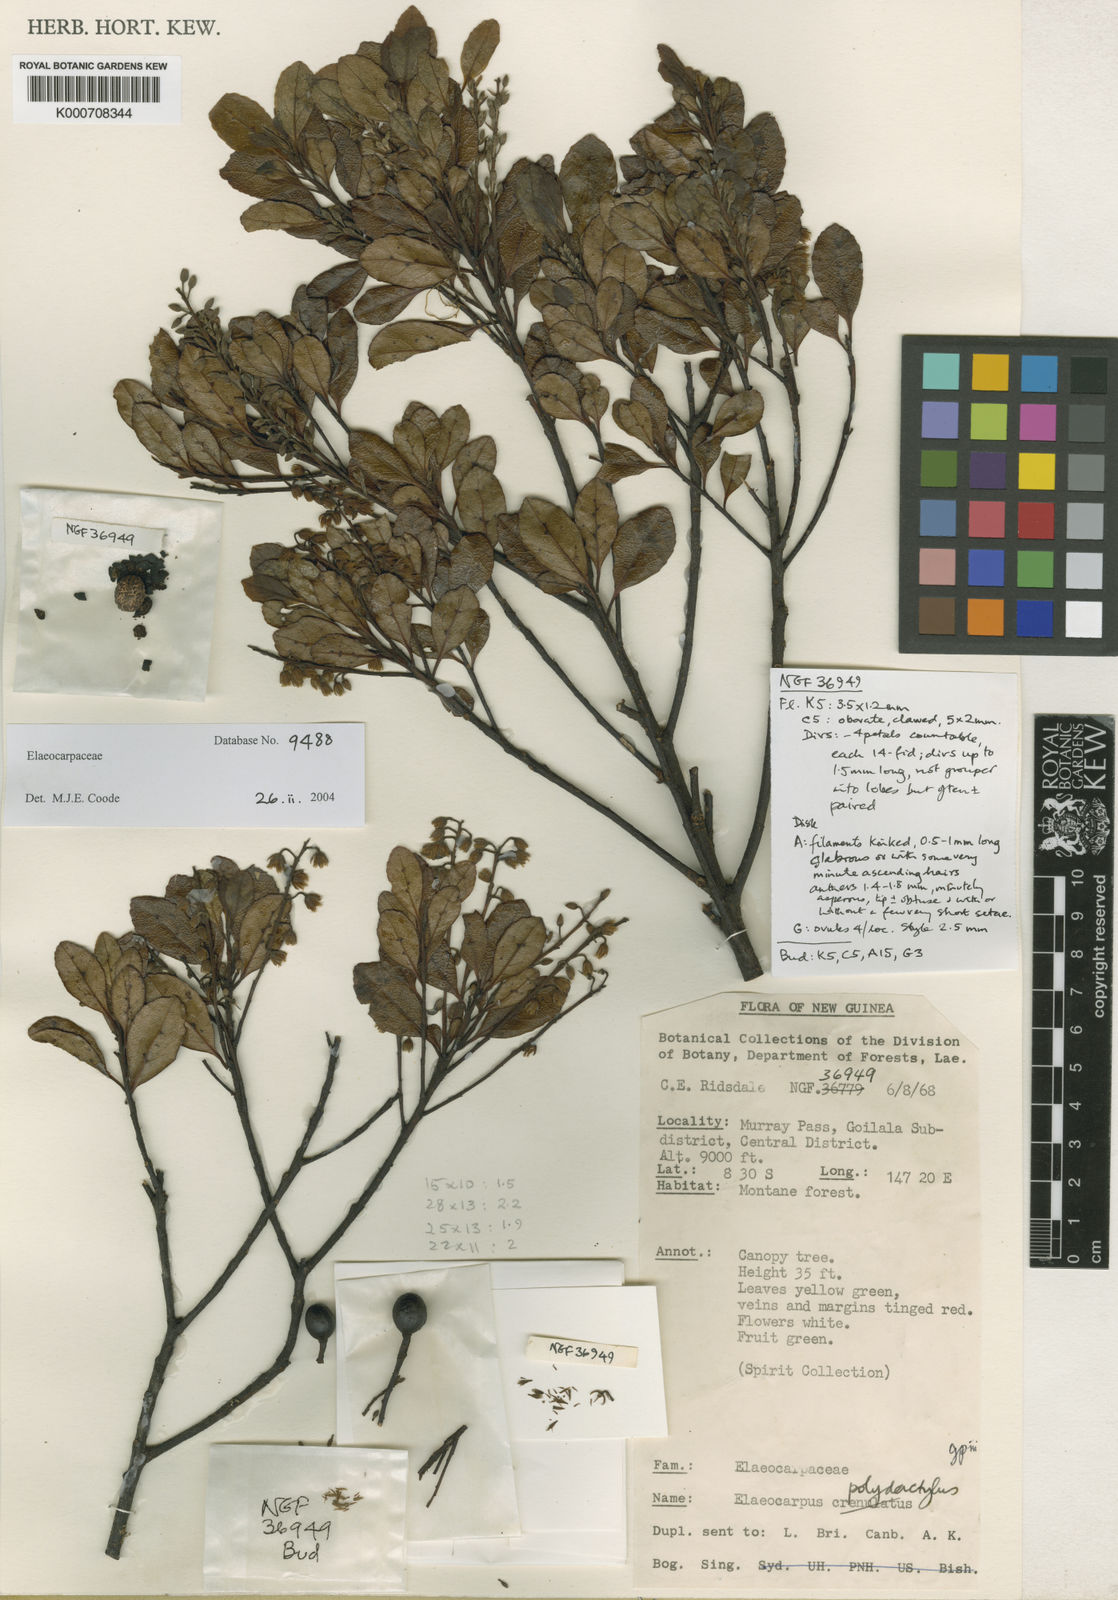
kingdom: Plantae
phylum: Tracheophyta
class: Magnoliopsida
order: Oxalidales
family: Elaeocarpaceae
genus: Elaeocarpus
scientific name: Elaeocarpus polydactylus
